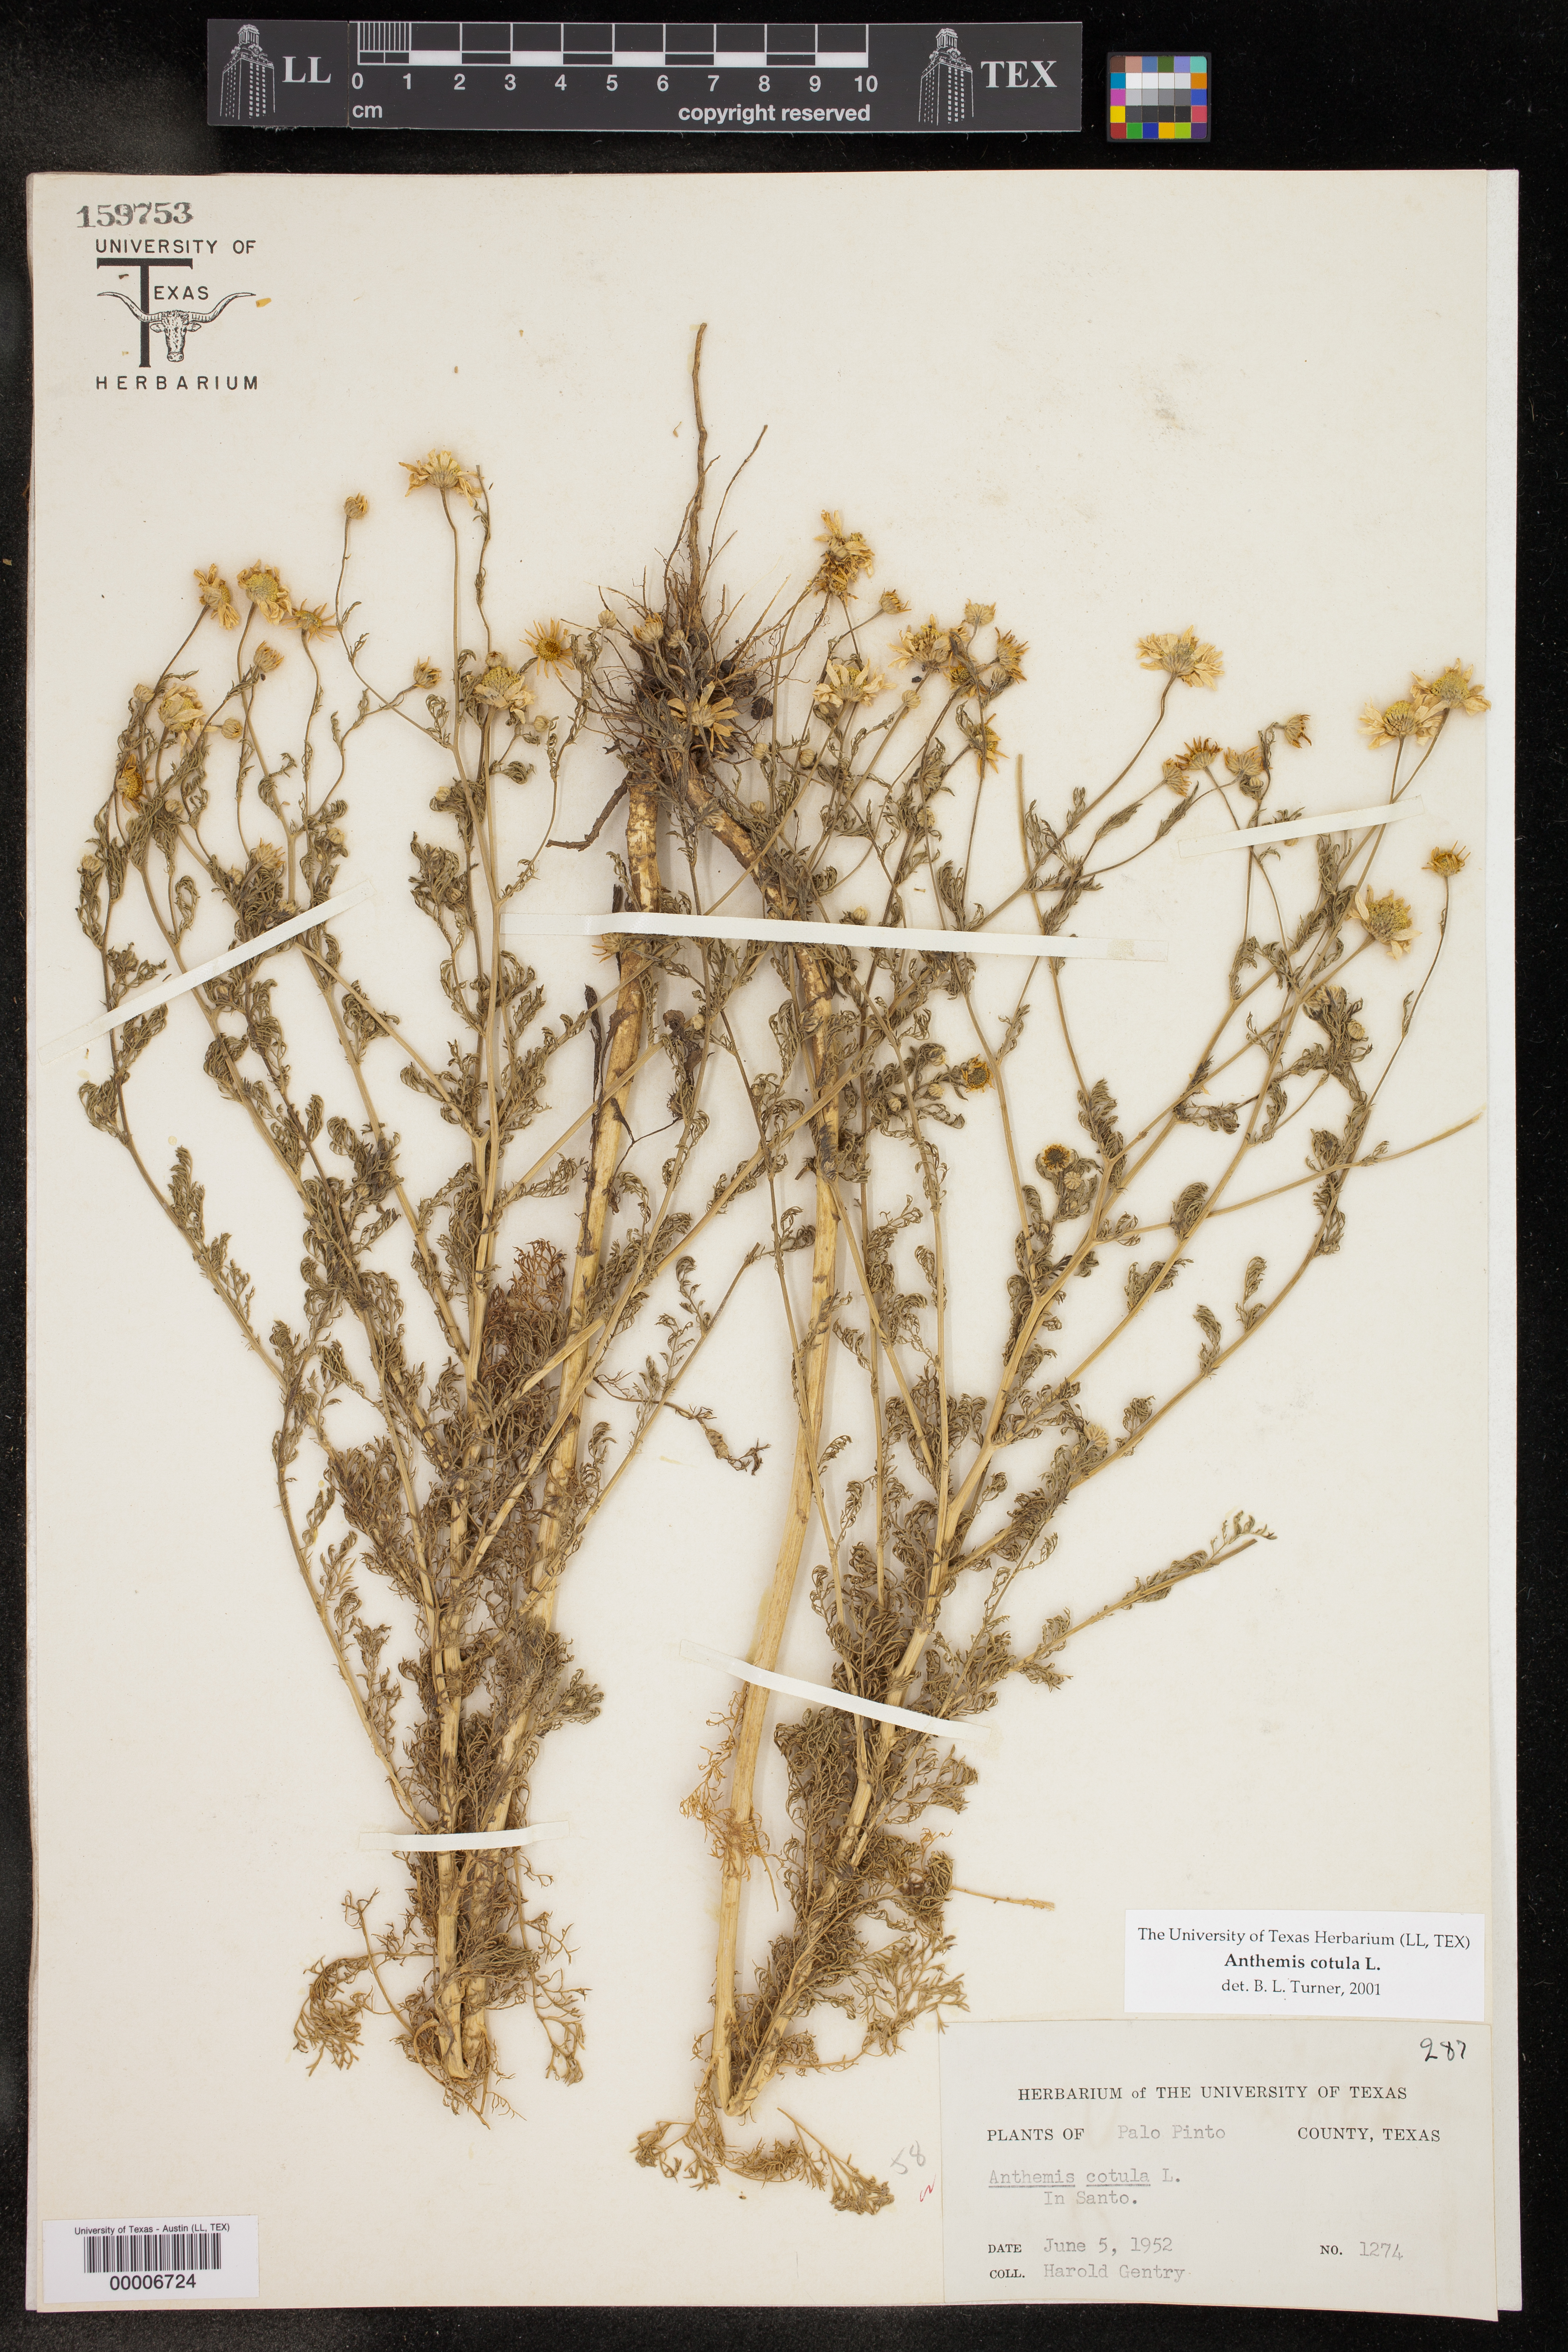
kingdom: Plantae
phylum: Tracheophyta
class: Magnoliopsida
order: Asterales
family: Asteraceae
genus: Anthemis
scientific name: Anthemis cotula
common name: Stinking chamomile
